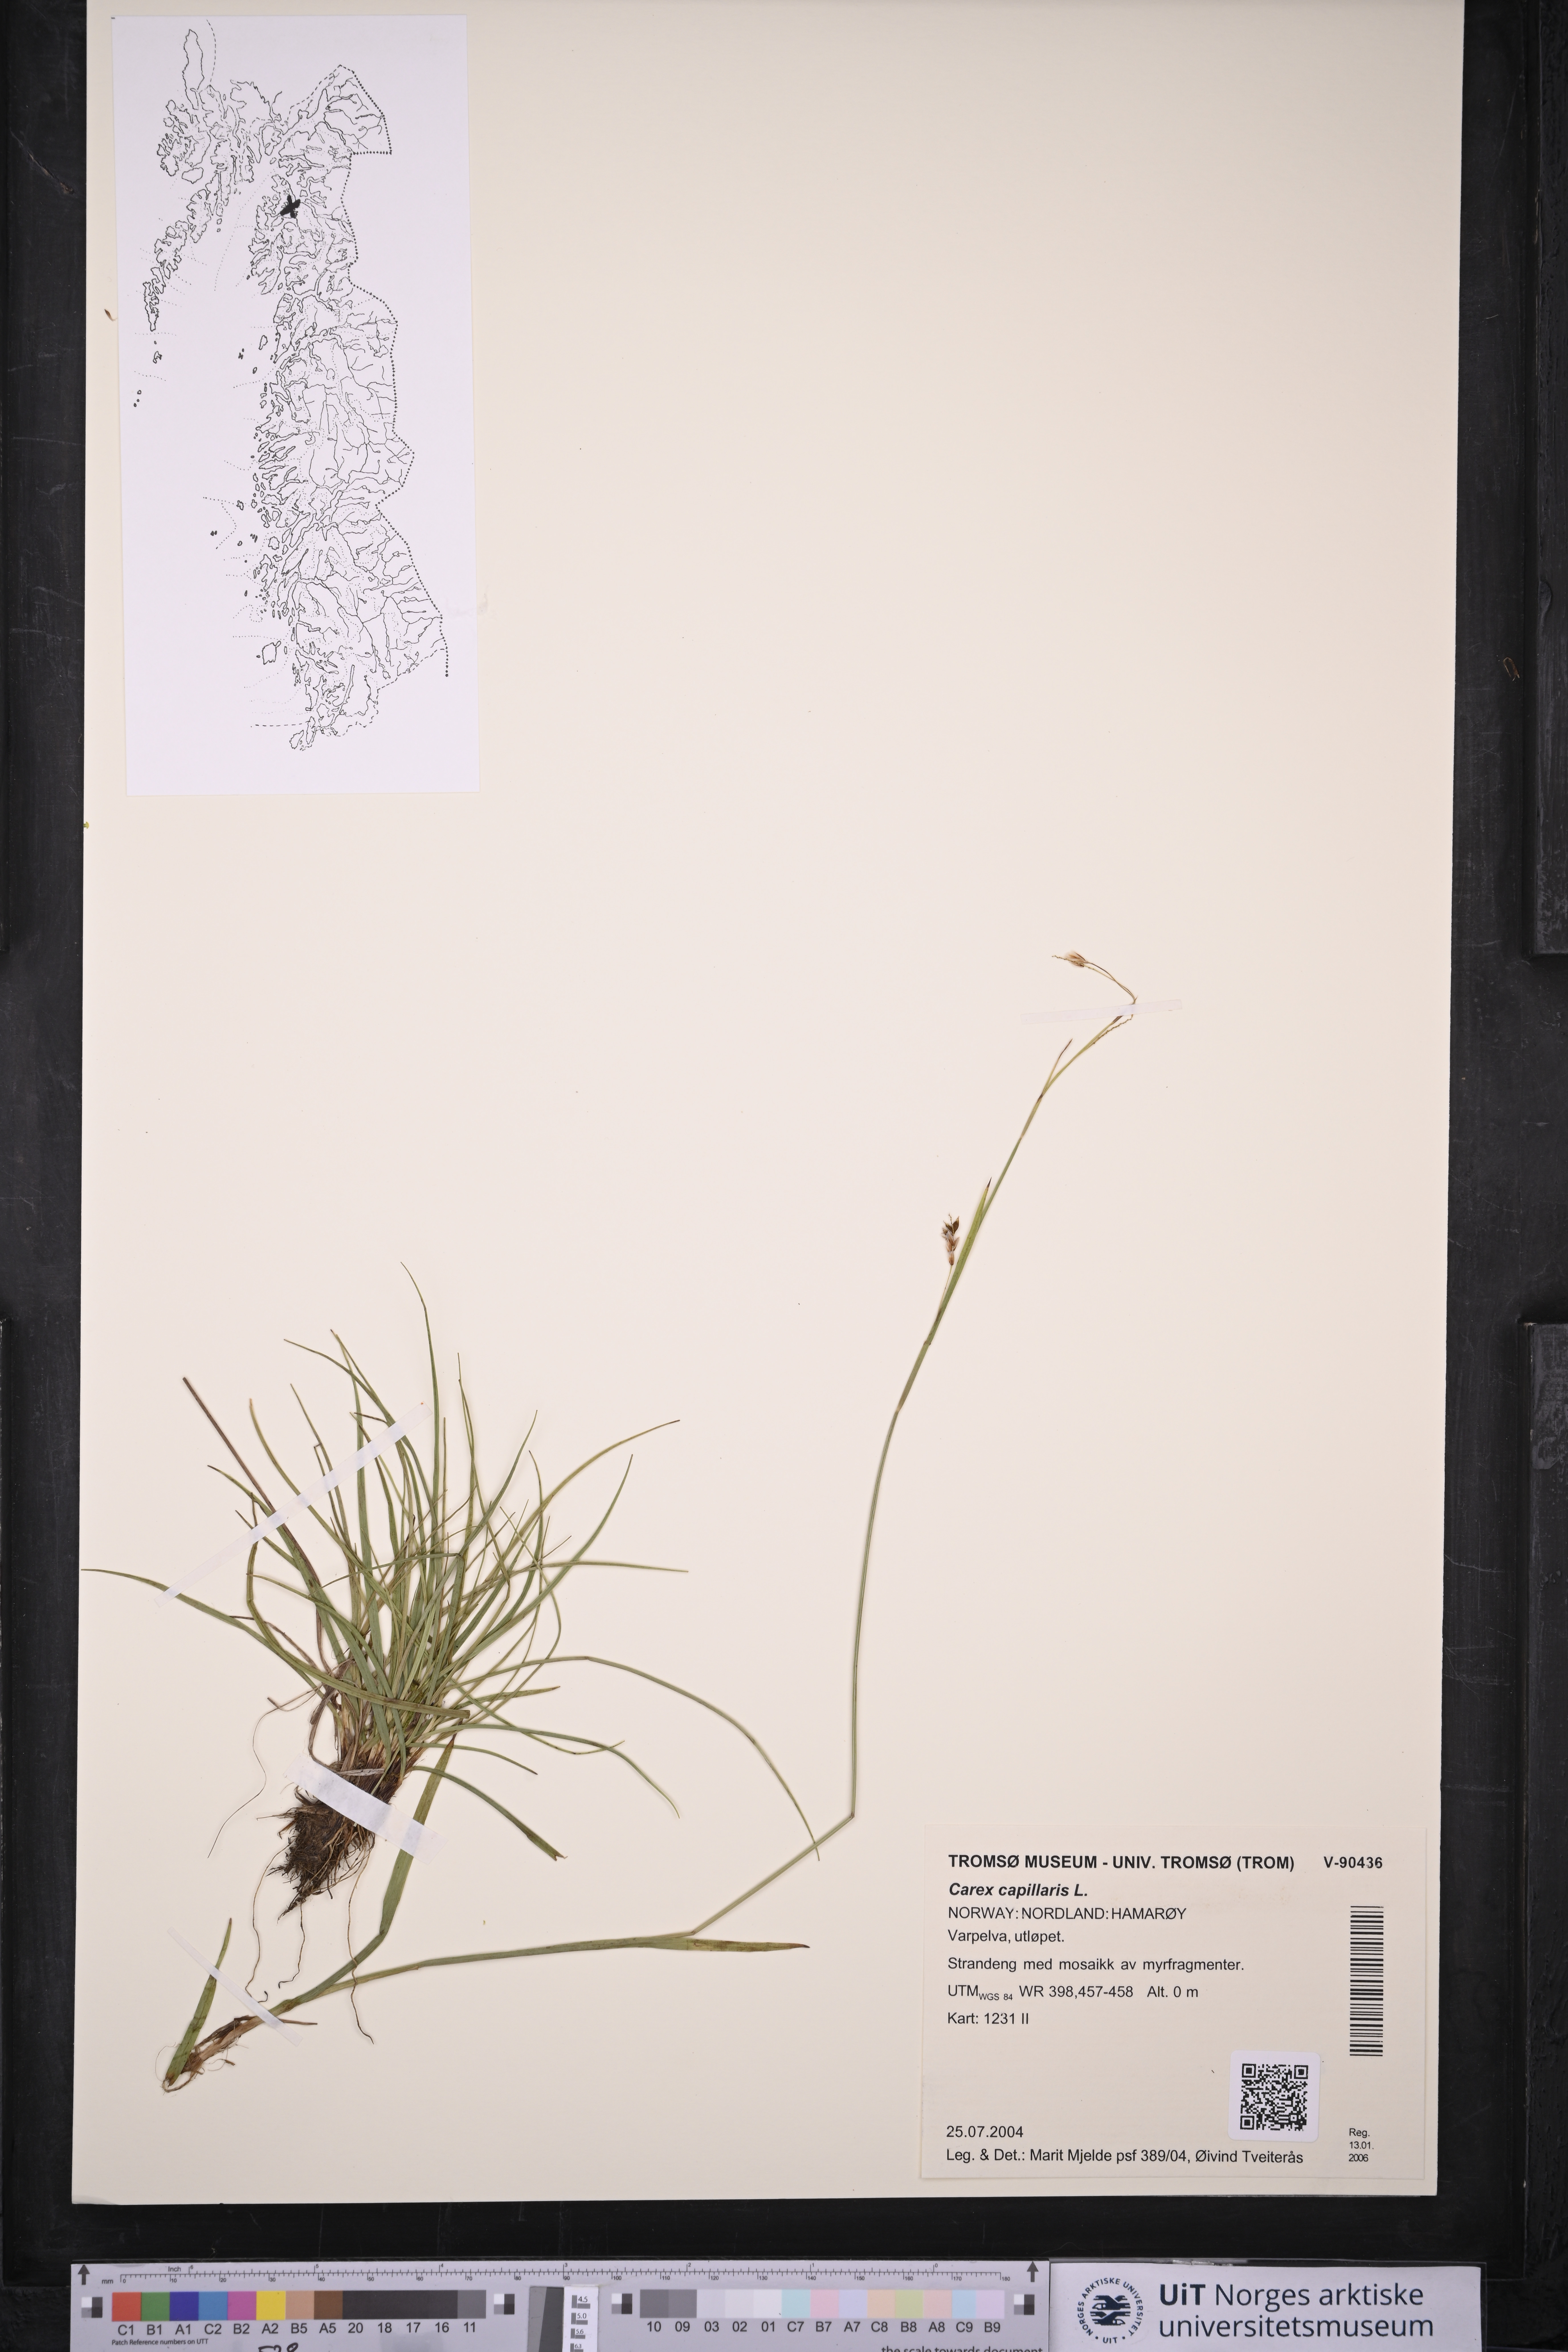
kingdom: Plantae
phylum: Tracheophyta
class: Liliopsida
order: Poales
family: Cyperaceae
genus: Carex
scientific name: Carex capillaris
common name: Hair sedge
